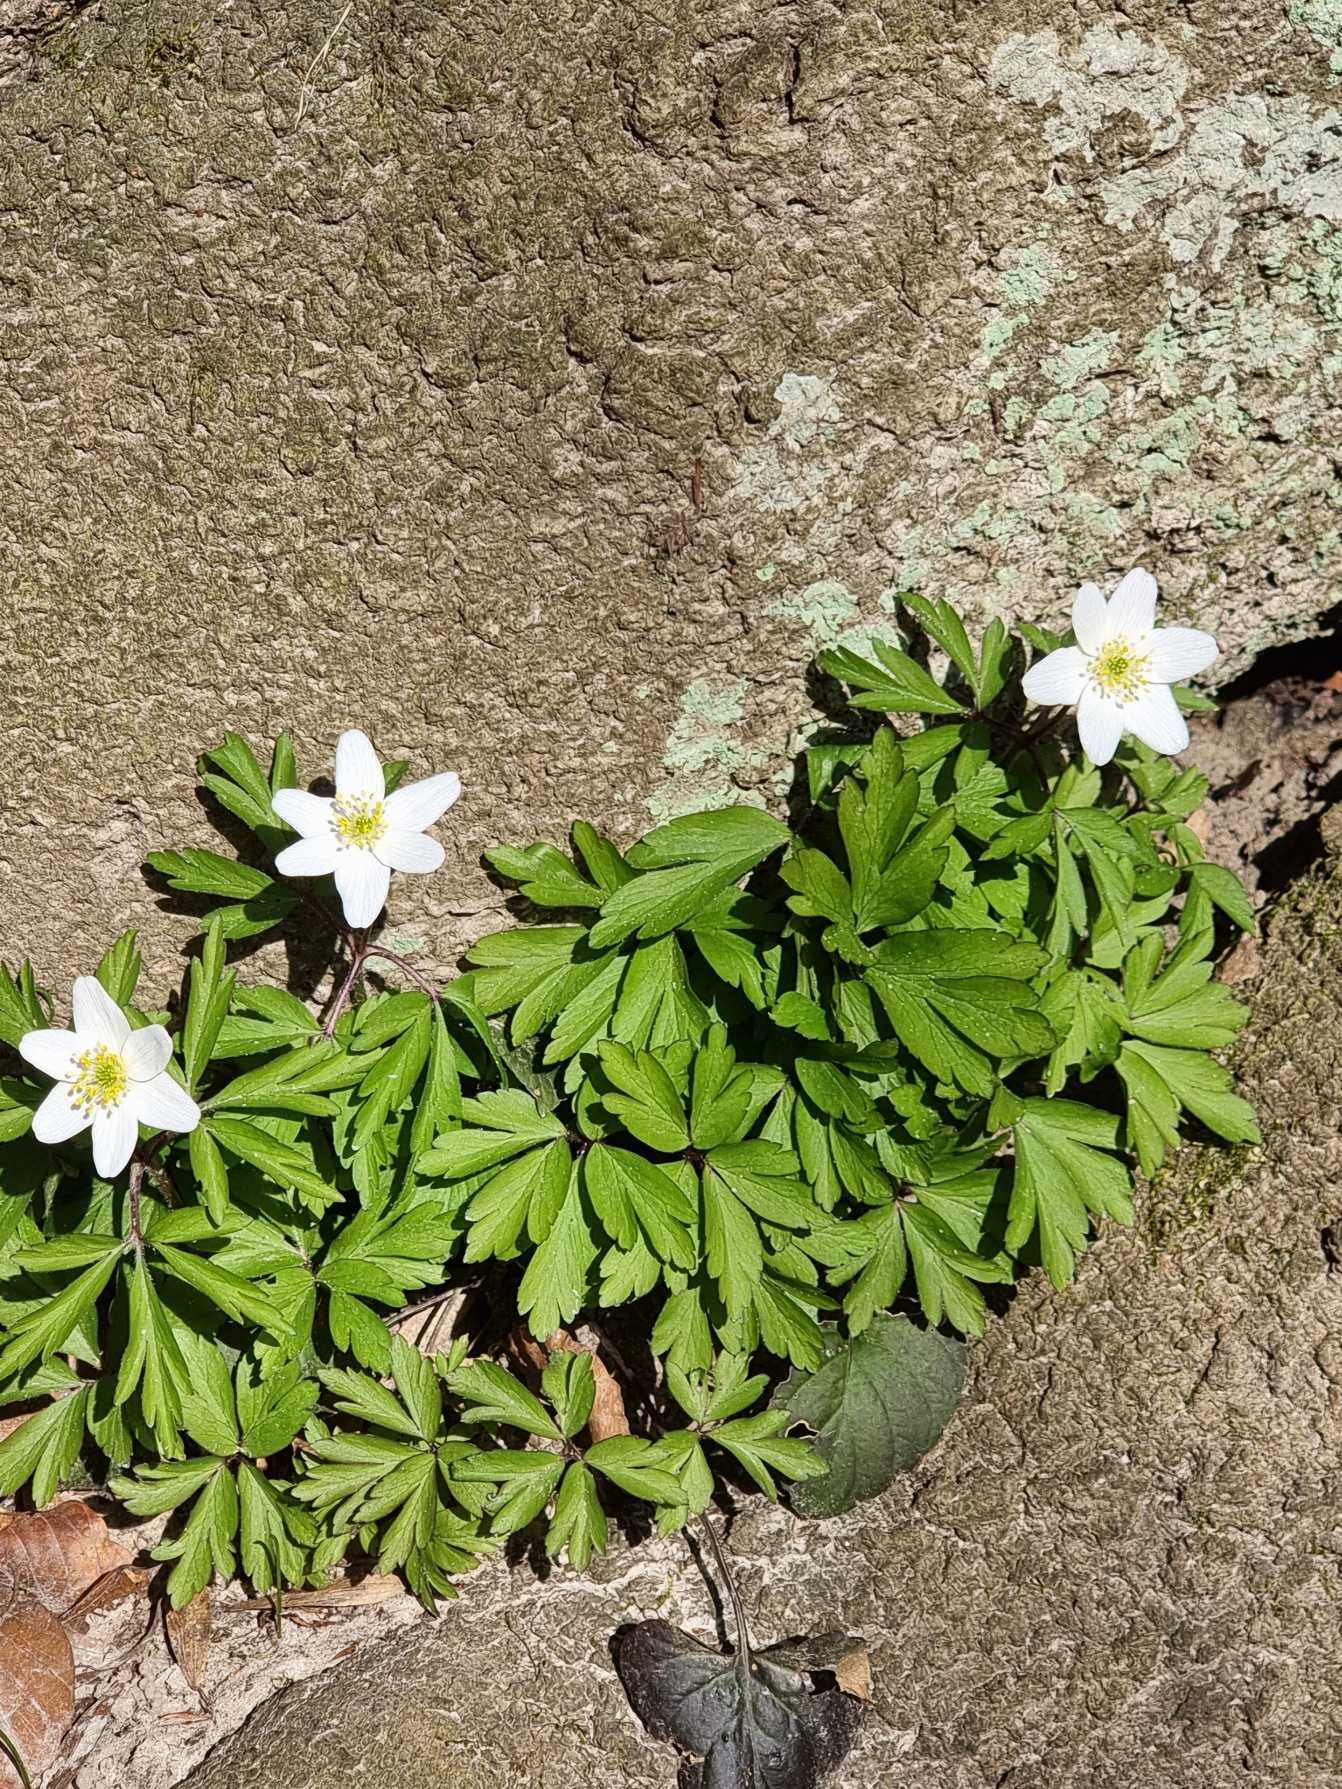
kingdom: Plantae
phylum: Tracheophyta
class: Magnoliopsida
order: Ranunculales
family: Ranunculaceae
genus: Anemone
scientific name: Anemone nemorosa
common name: Hvid anemone
